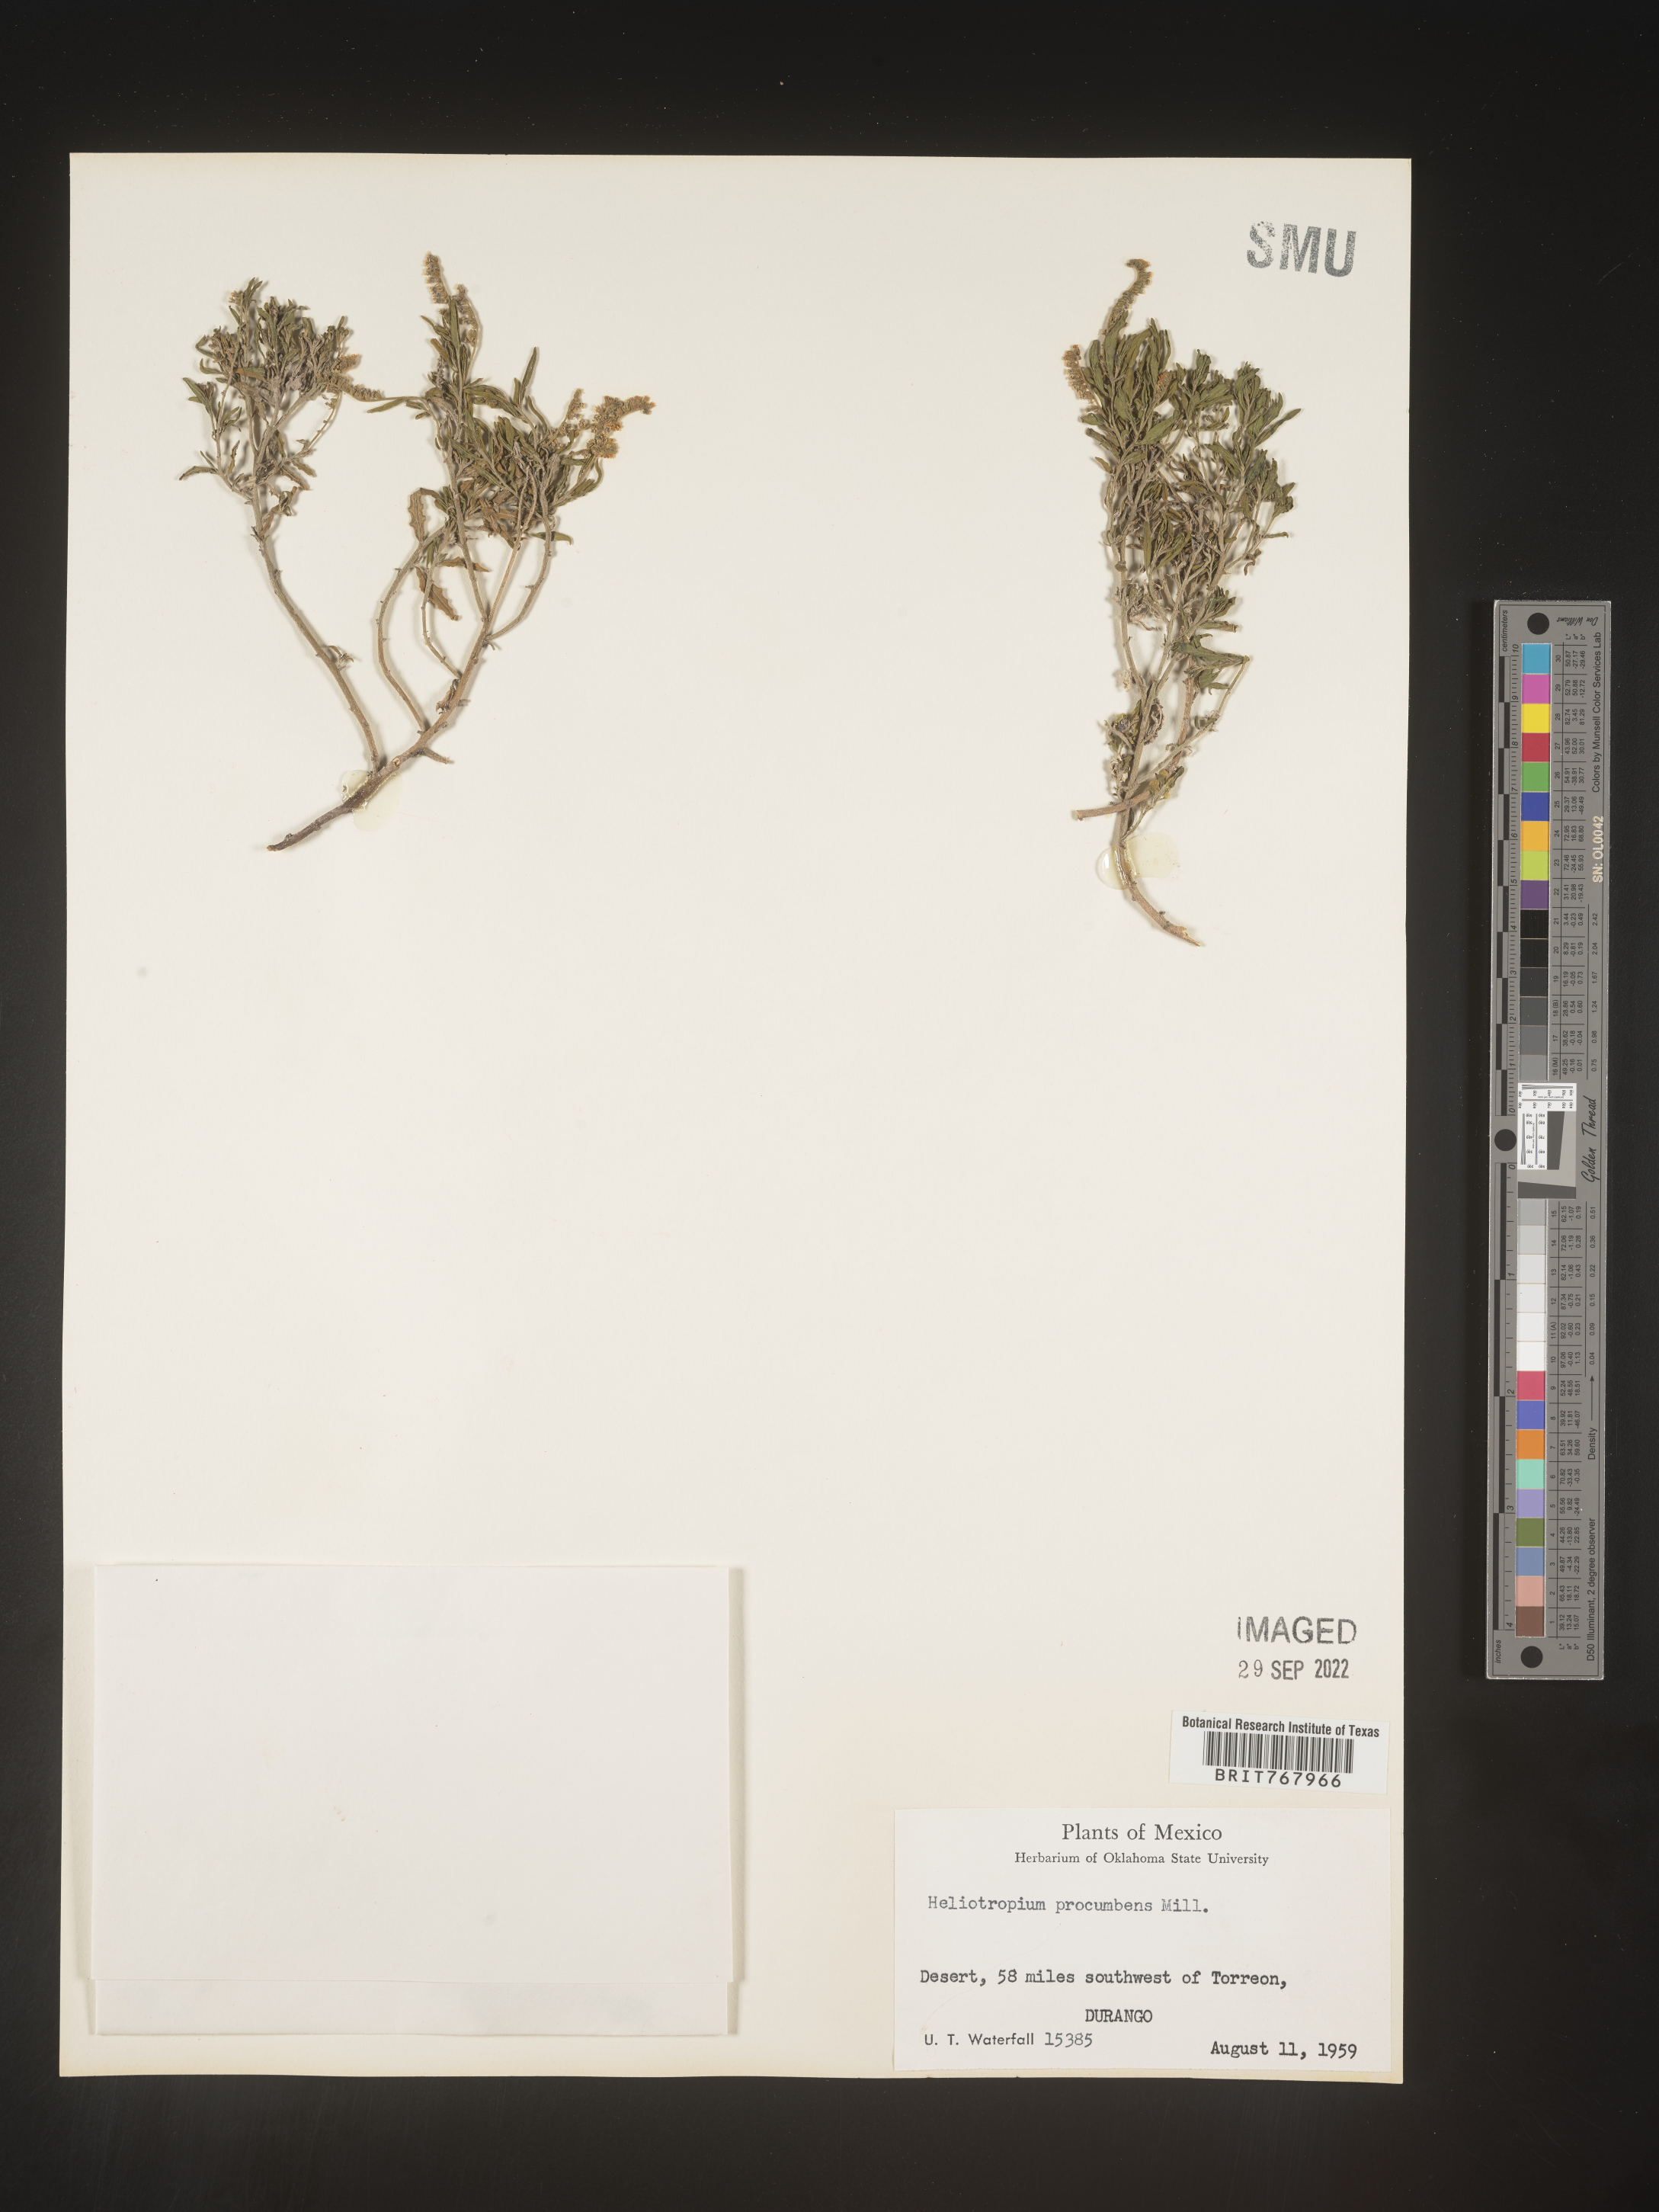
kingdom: Plantae
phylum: Tracheophyta
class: Magnoliopsida
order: Boraginales
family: Heliotropiaceae
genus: Heliotropium
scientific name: Heliotropium
